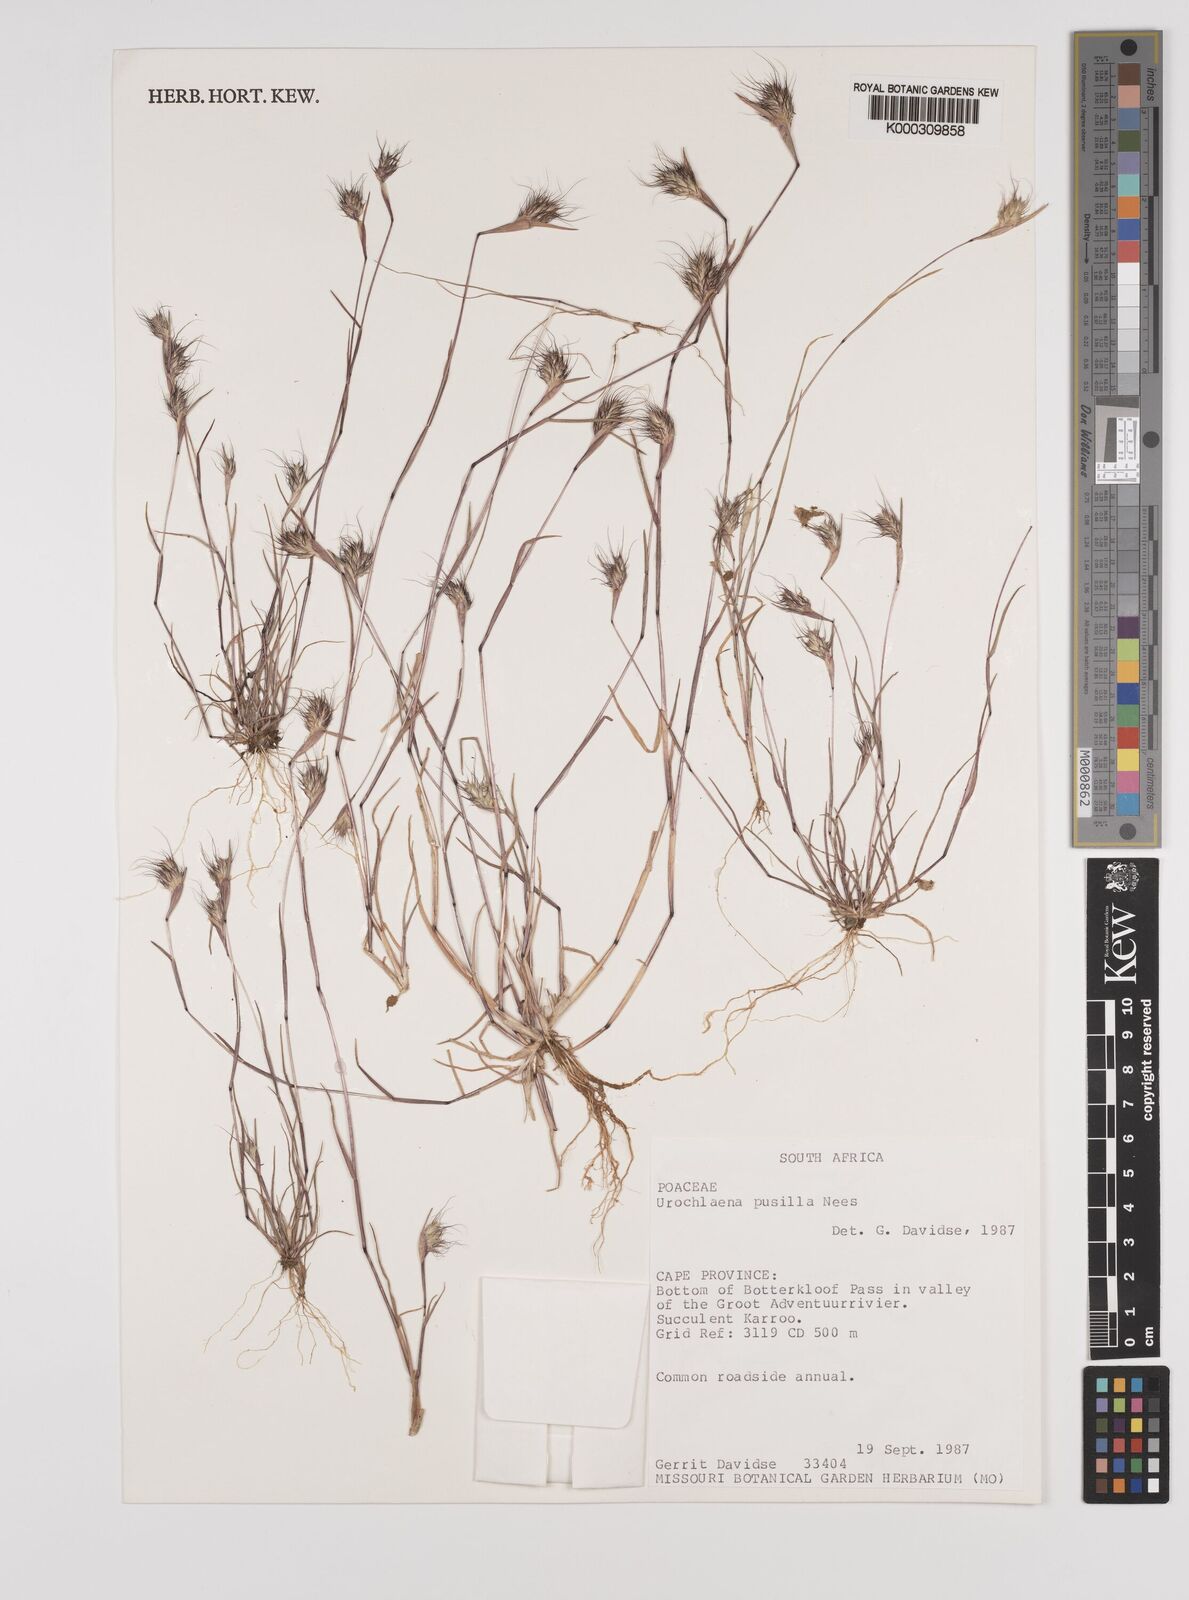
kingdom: Plantae
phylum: Tracheophyta
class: Liliopsida
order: Poales
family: Poaceae
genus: Tribolium
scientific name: Tribolium pusillum
